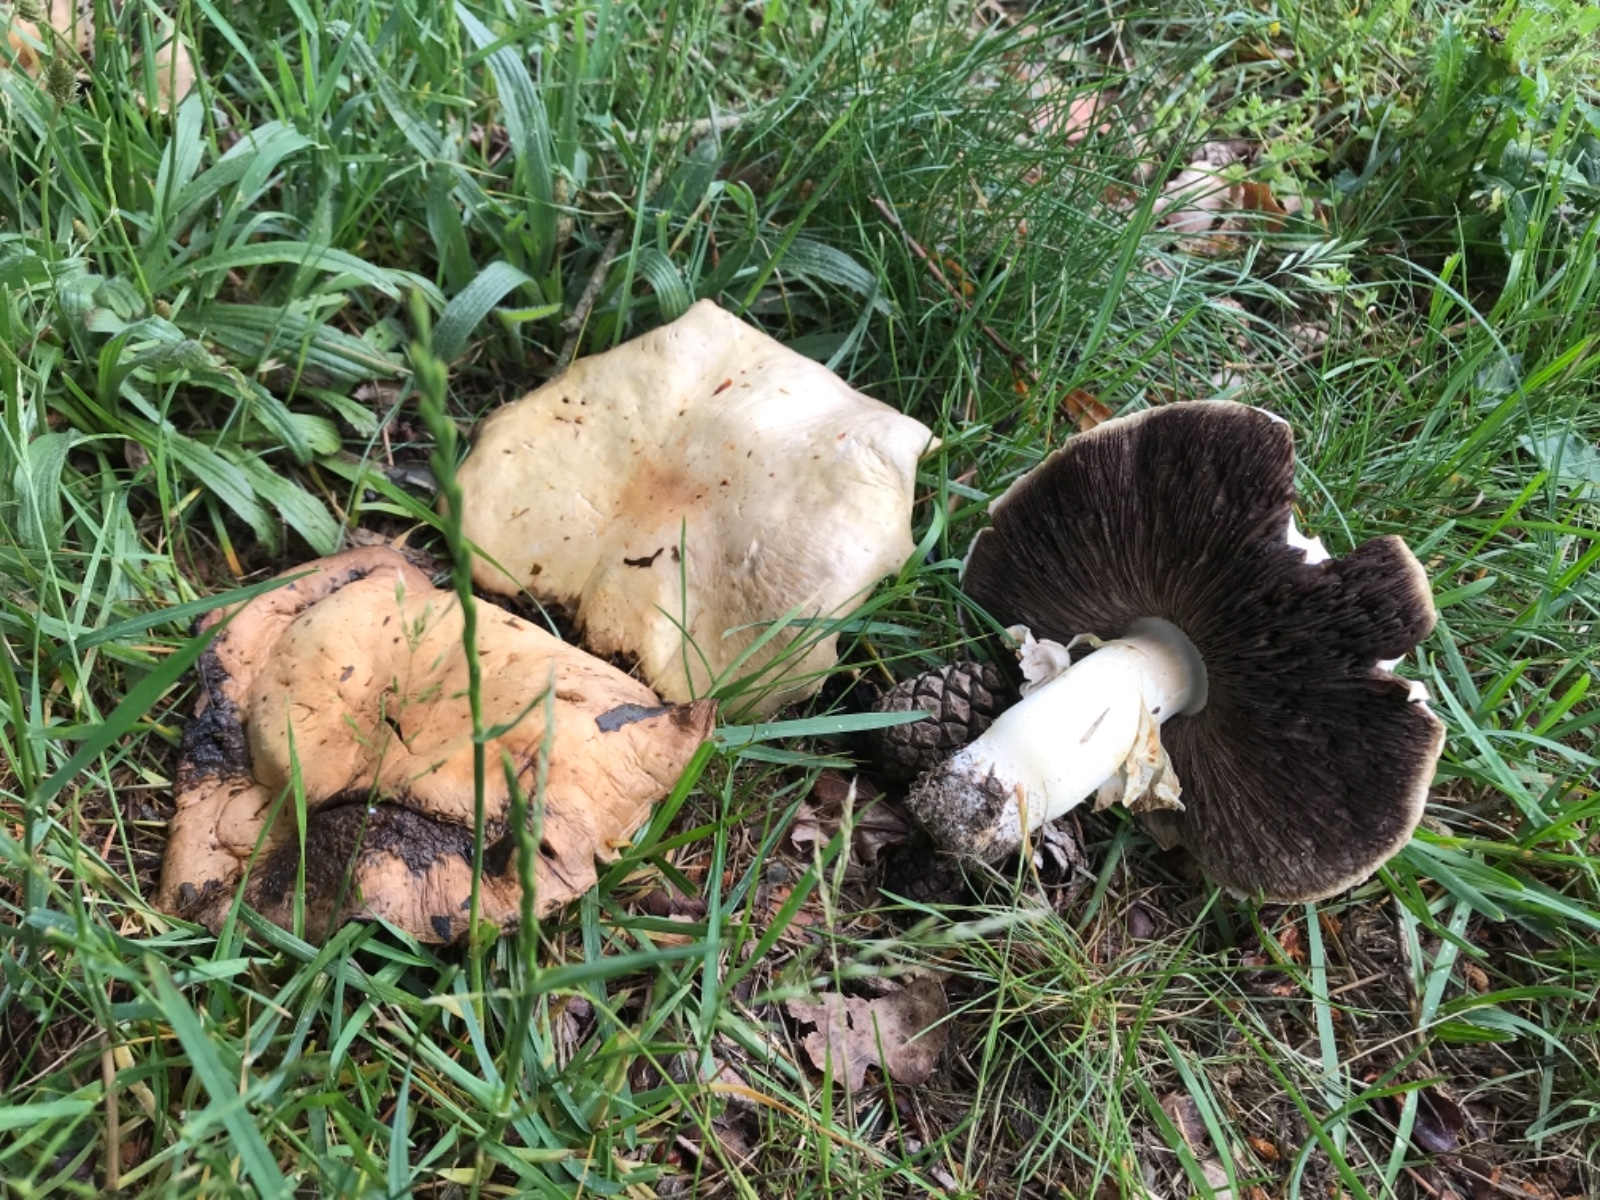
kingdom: Fungi
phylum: Basidiomycota
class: Agaricomycetes
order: Agaricales
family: Agaricaceae
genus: Agaricus
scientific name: Agaricus arvensis
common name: ager-champignon
